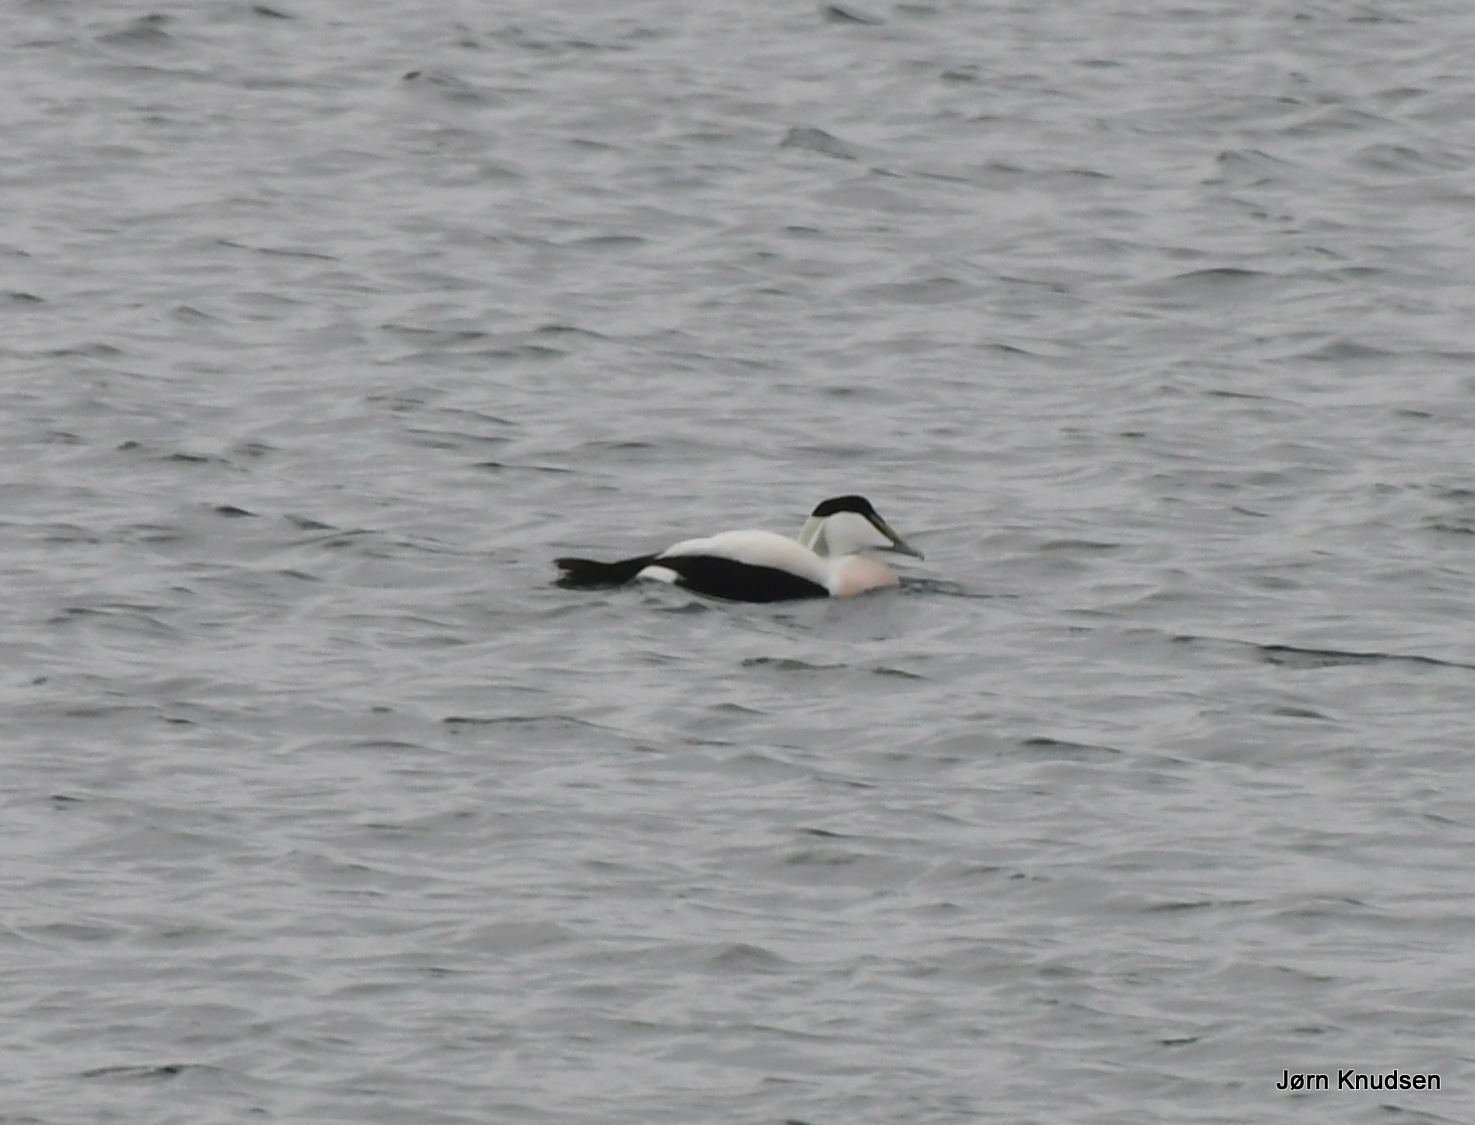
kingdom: Animalia
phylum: Chordata
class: Aves
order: Anseriformes
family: Anatidae
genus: Somateria
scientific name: Somateria mollissima
